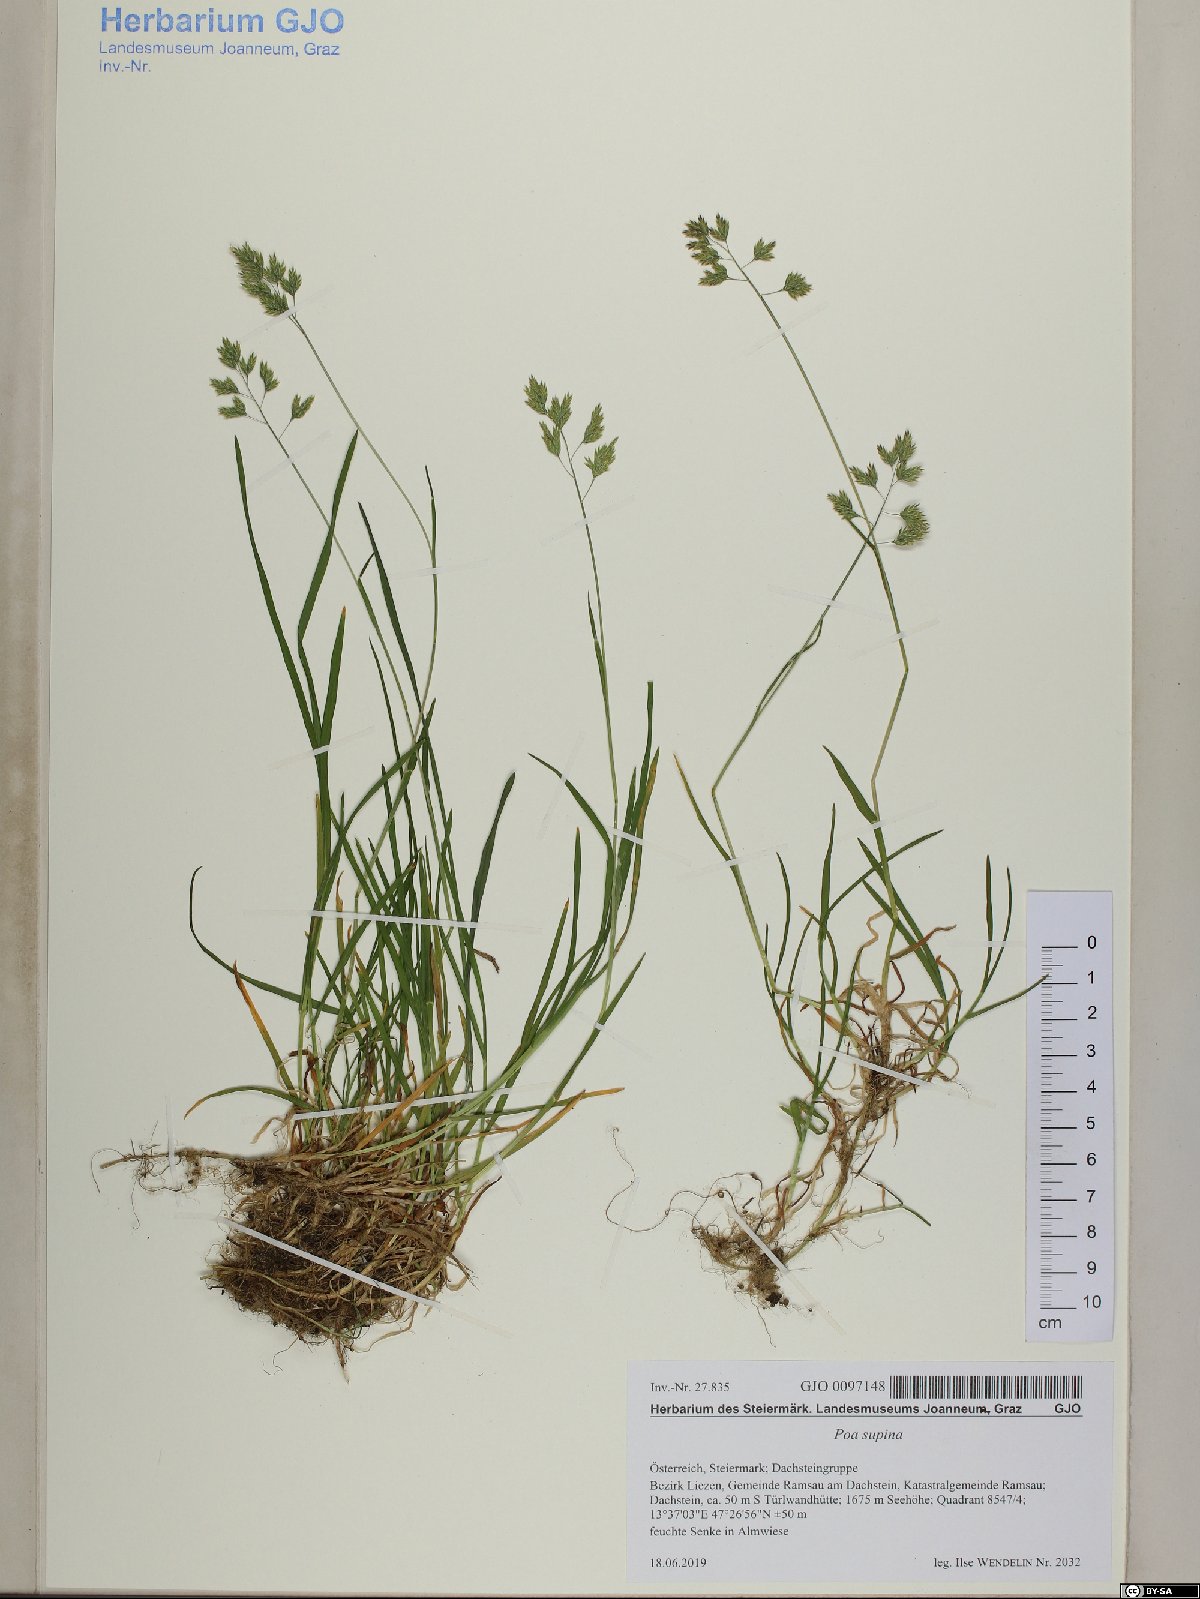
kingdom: Plantae
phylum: Tracheophyta
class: Liliopsida
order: Poales
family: Poaceae
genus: Poa
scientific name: Poa supina
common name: Supina bluegrass
